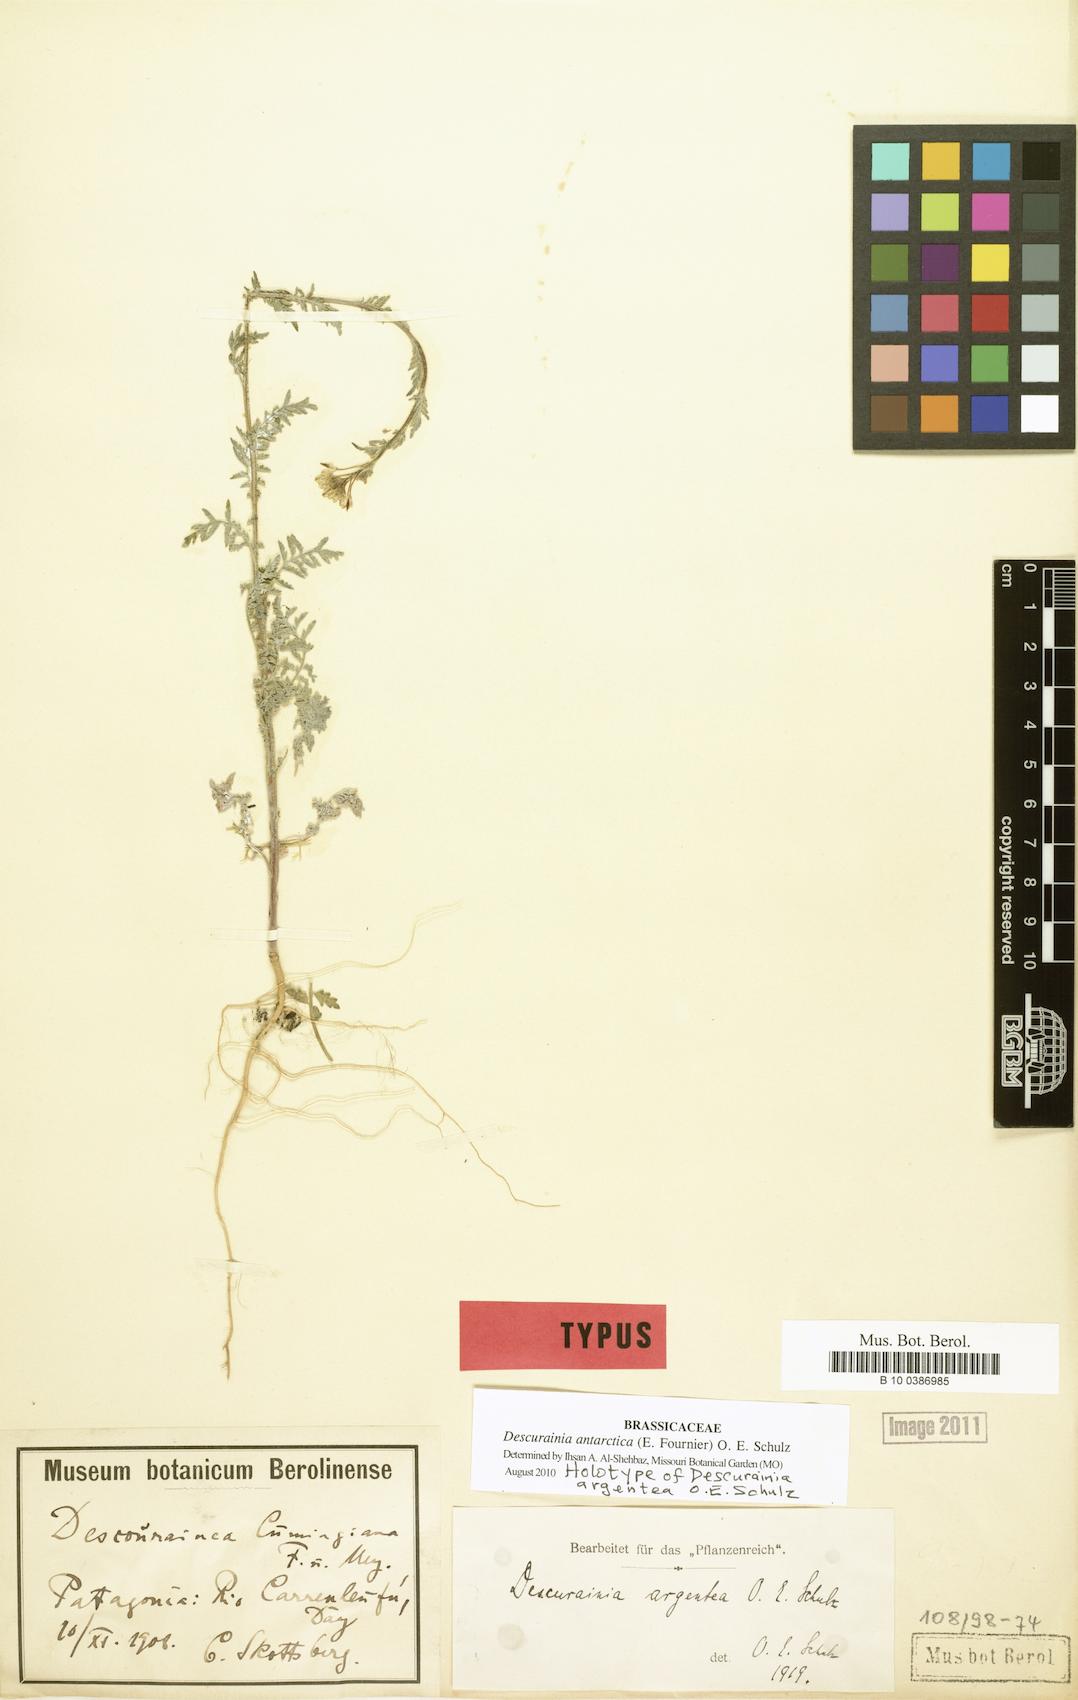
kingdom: Plantae
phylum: Tracheophyta
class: Magnoliopsida
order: Brassicales
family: Brassicaceae
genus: Descurainia
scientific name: Descurainia antarctica
